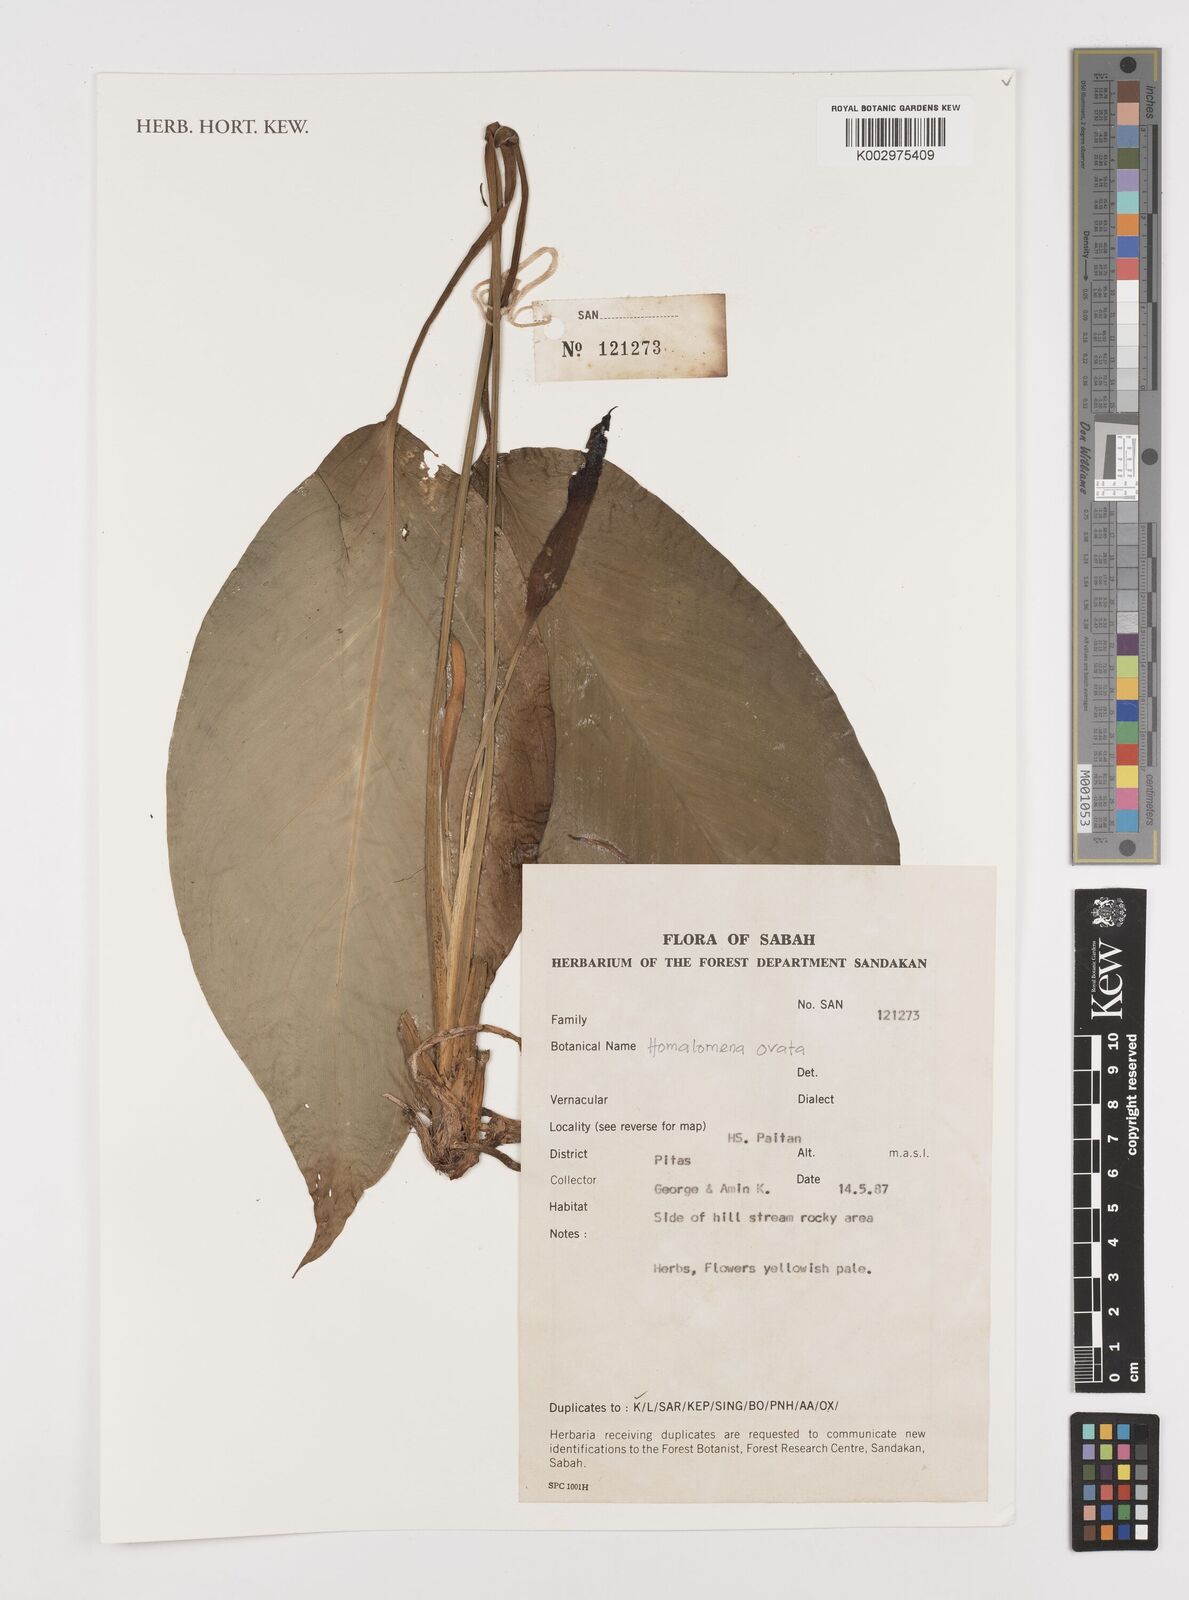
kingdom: Plantae
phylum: Tracheophyta
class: Liliopsida
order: Alismatales
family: Araceae
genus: Homalomena
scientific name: Homalomena ovata
